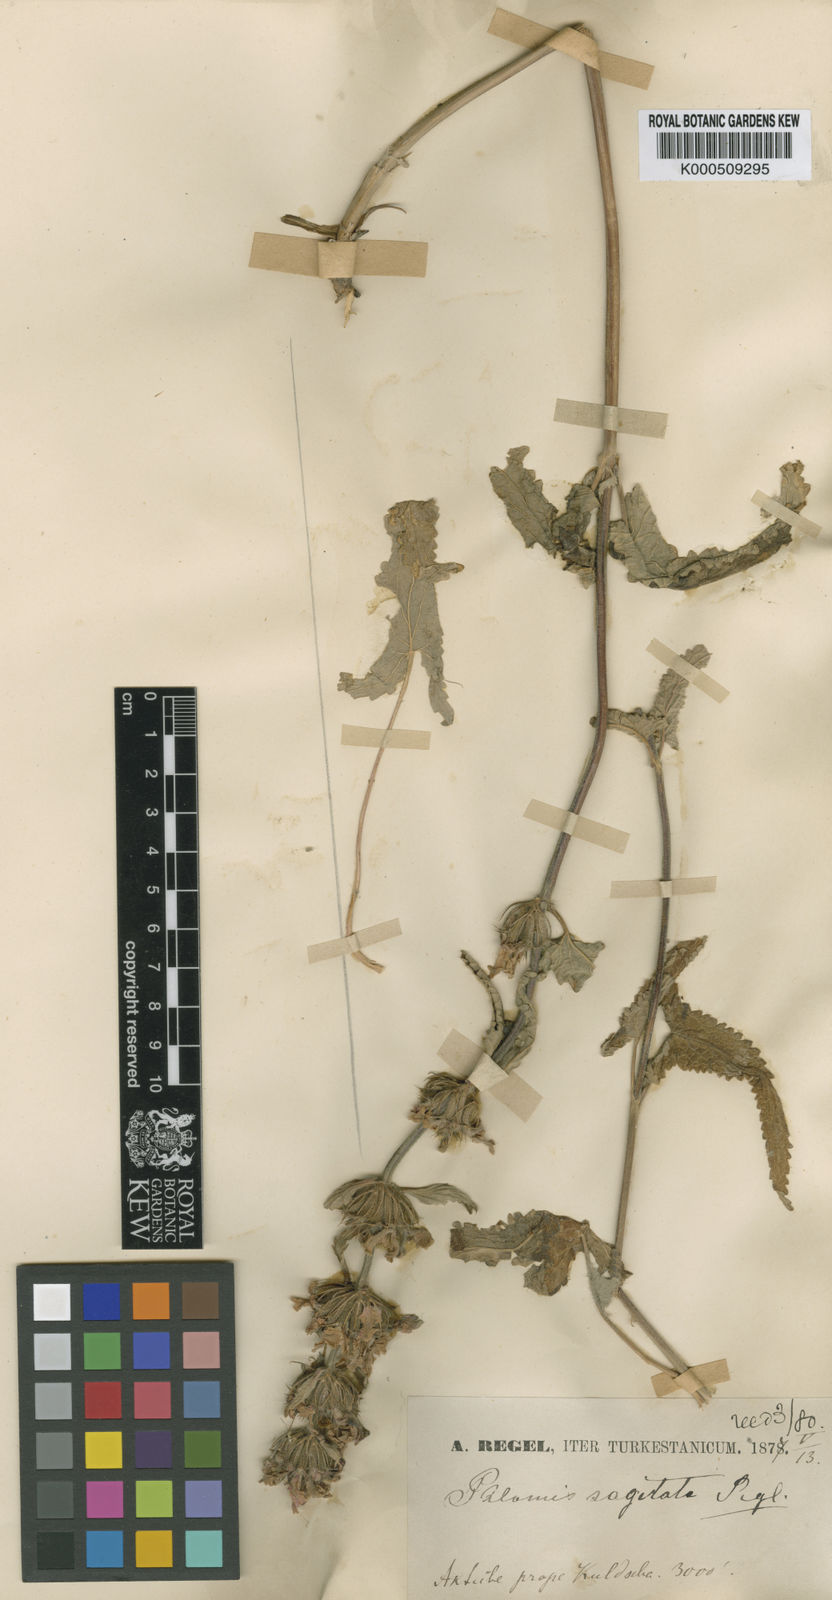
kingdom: Plantae
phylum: Tracheophyta
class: Magnoliopsida
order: Lamiales
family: Lamiaceae
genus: Metastachydium
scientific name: Metastachydium sagittatum
